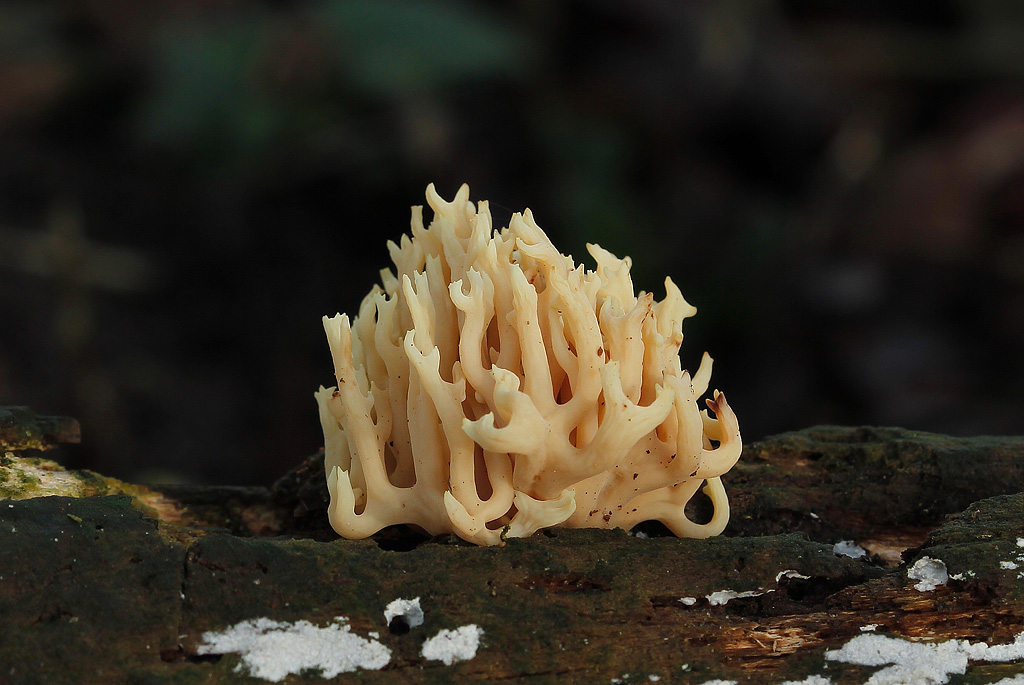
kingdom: Fungi
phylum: Basidiomycota
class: Agaricomycetes
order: Gomphales
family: Gomphaceae
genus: Ramaria
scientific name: Ramaria stricta
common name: rank koralsvamp
